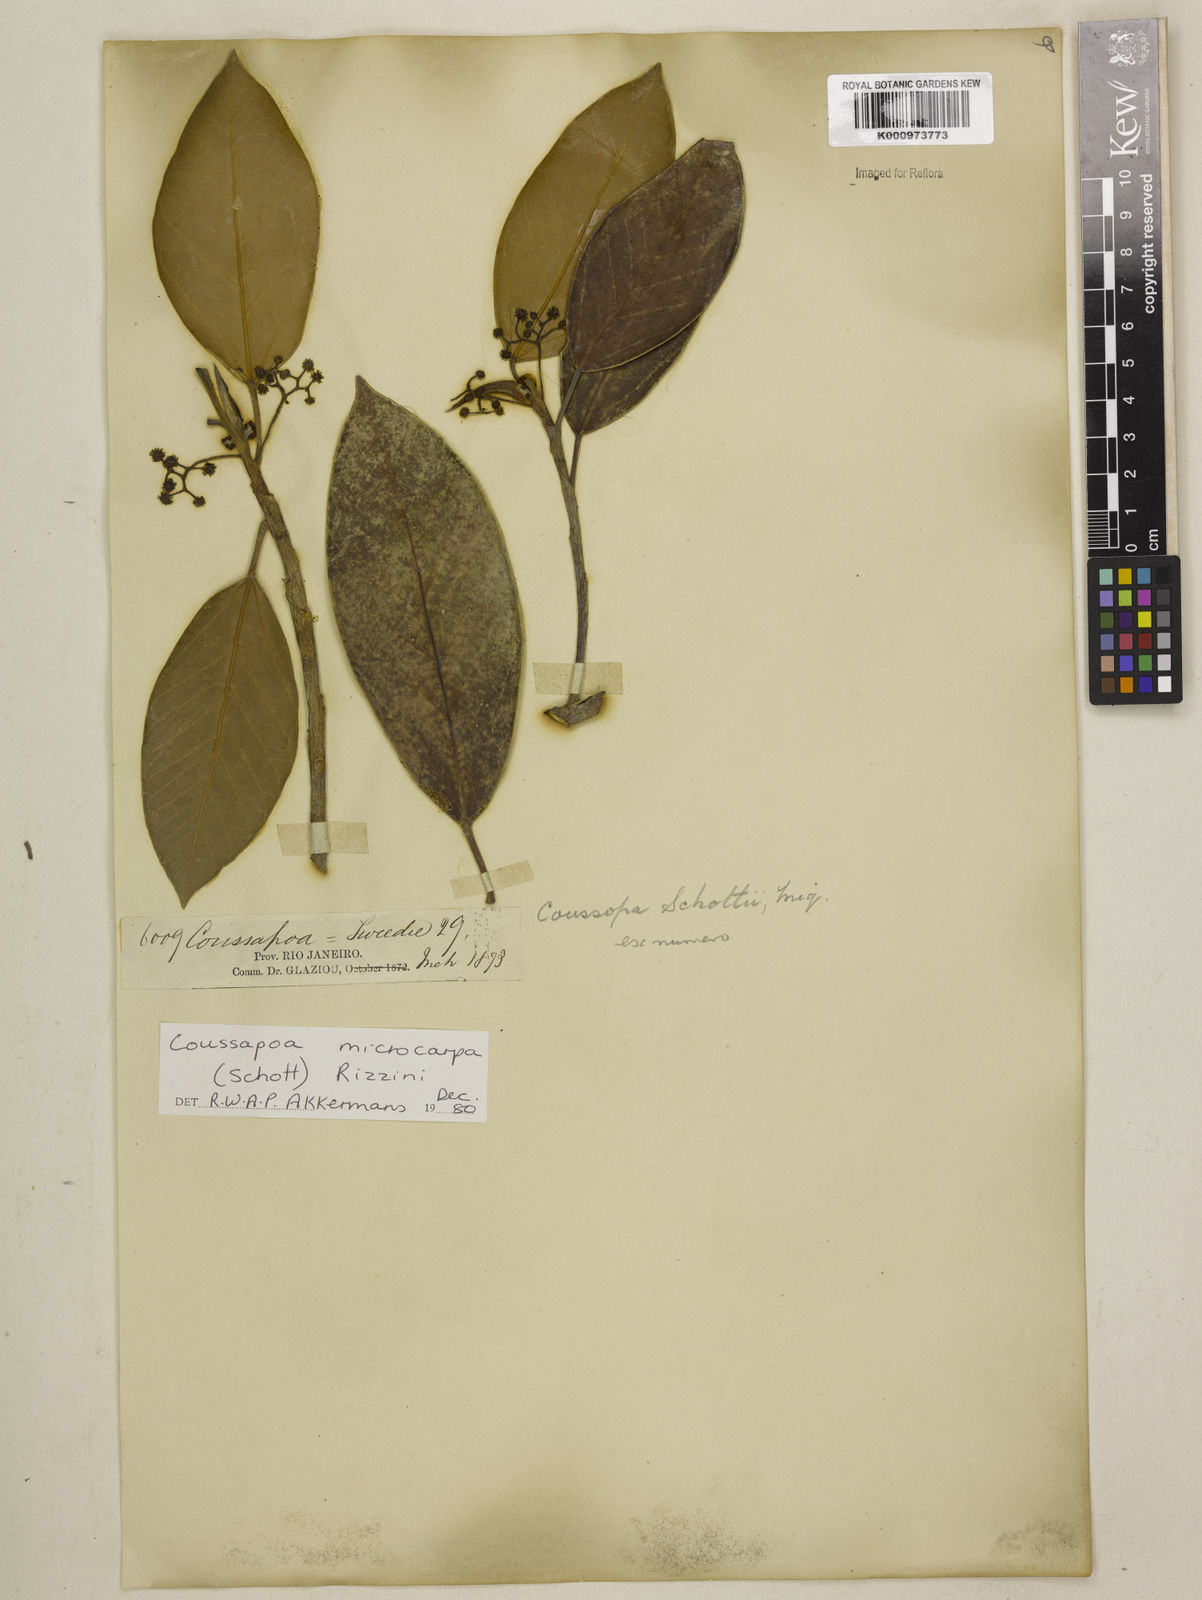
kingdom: Plantae
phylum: Tracheophyta
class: Magnoliopsida
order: Rosales
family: Urticaceae
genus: Coussapoa
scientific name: Coussapoa microcarpa
